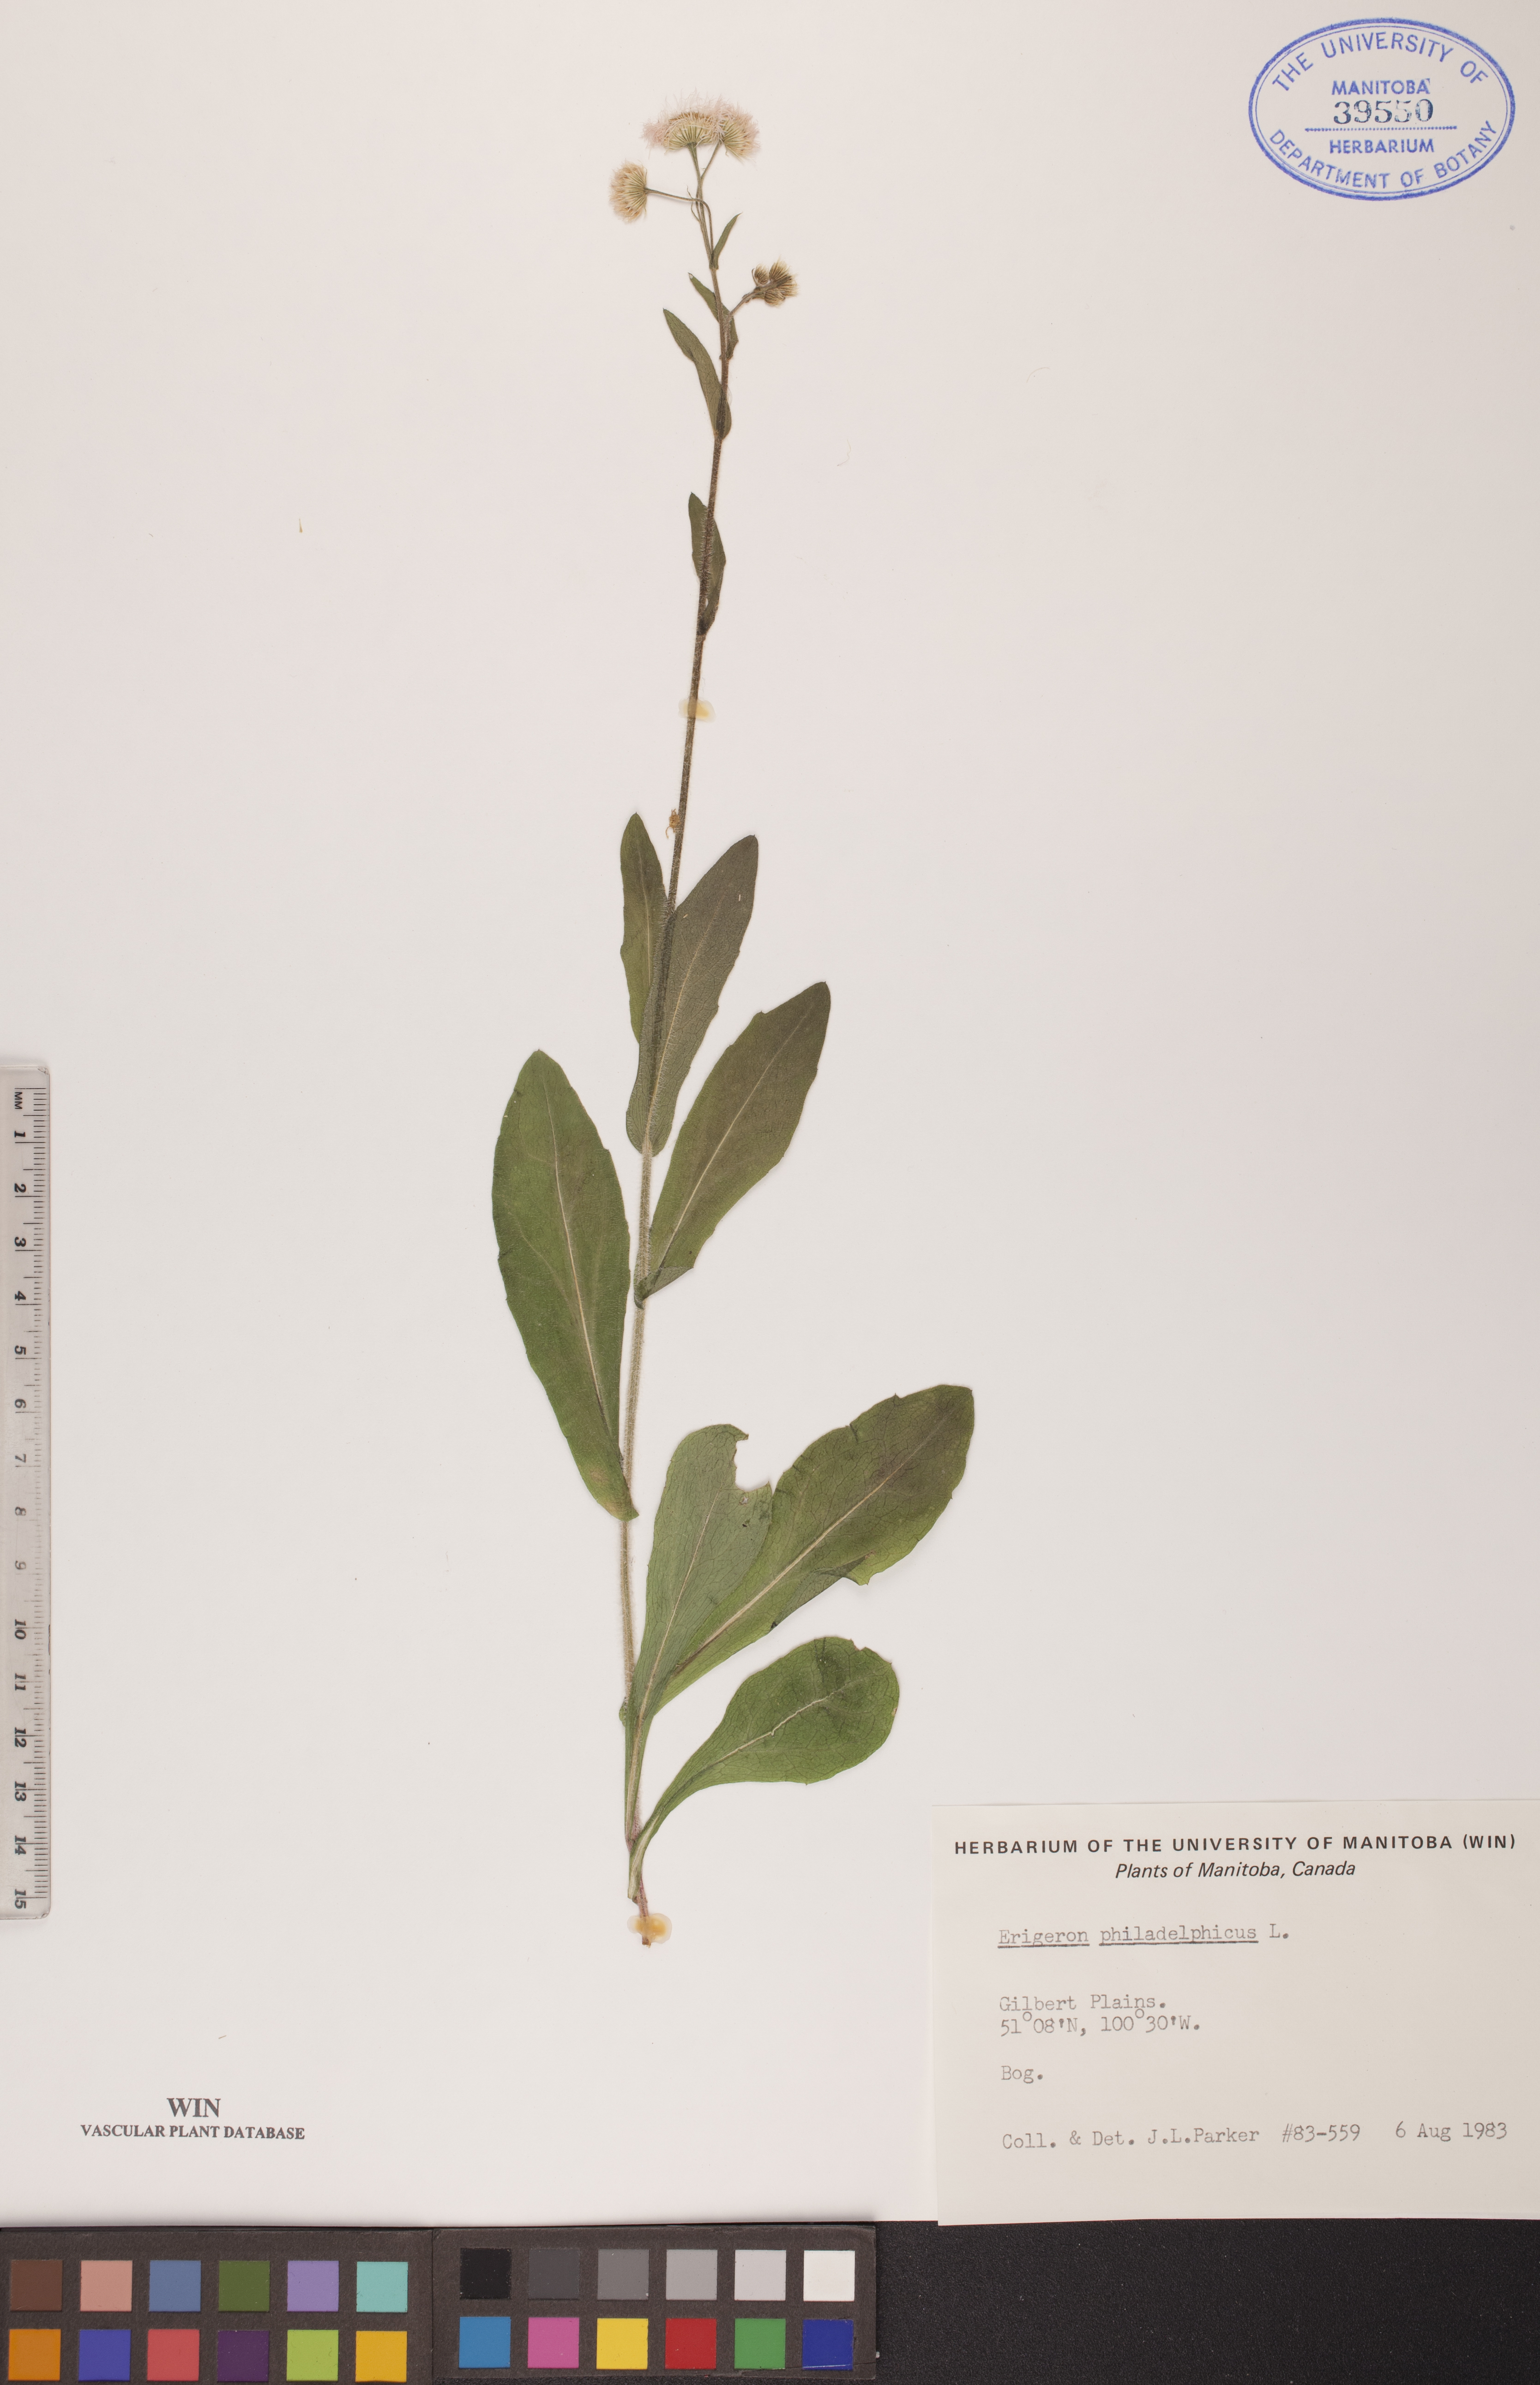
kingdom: Plantae
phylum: Tracheophyta
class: Magnoliopsida
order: Asterales
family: Asteraceae
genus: Erigeron
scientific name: Erigeron philadelphicus
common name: Robin's-plantain
